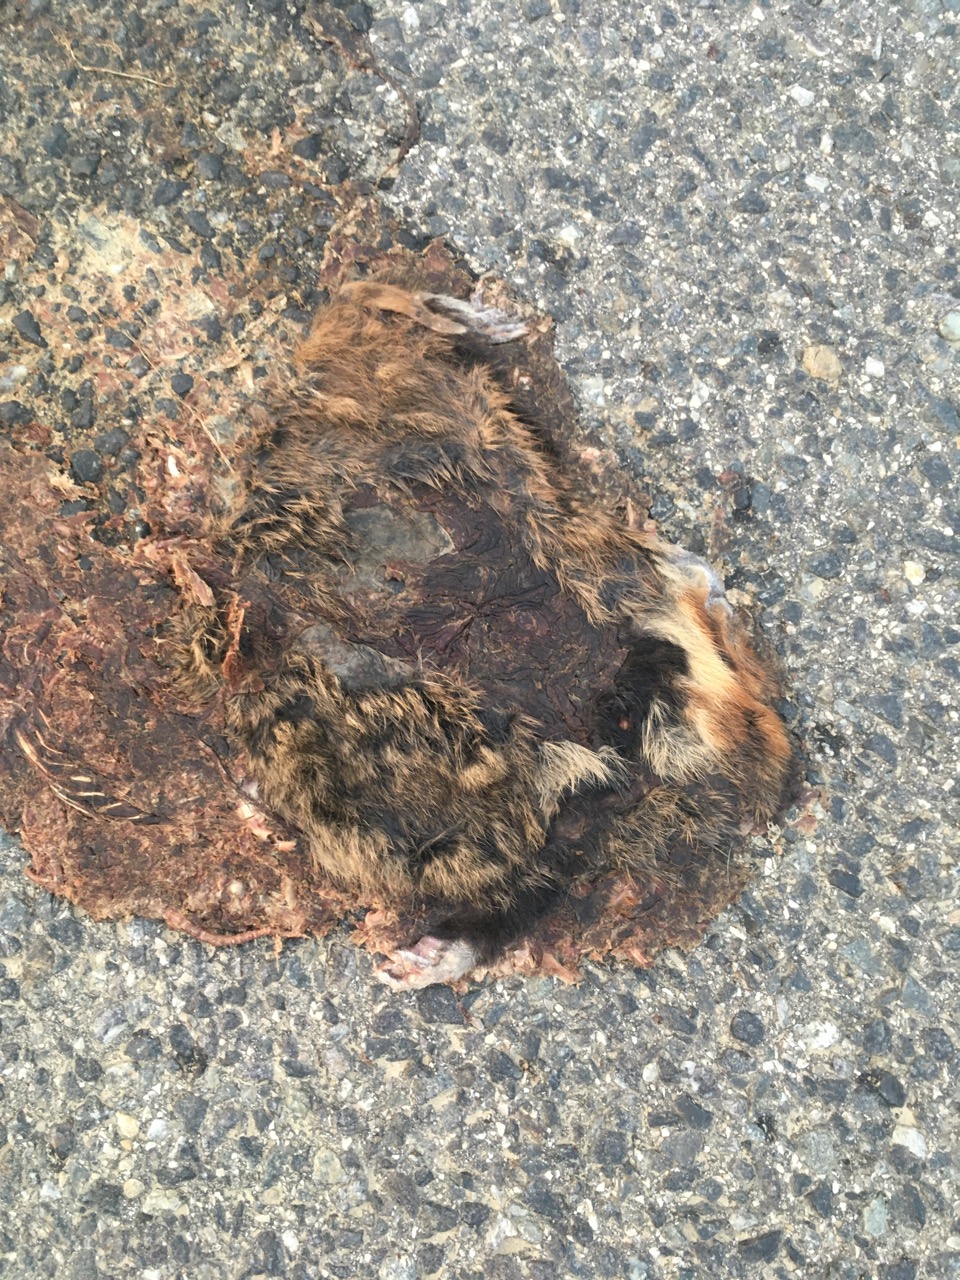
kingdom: Animalia
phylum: Chordata
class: Mammalia
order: Rodentia
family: Cricetidae
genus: Cricetus
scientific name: Cricetus cricetus
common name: Common hamster
